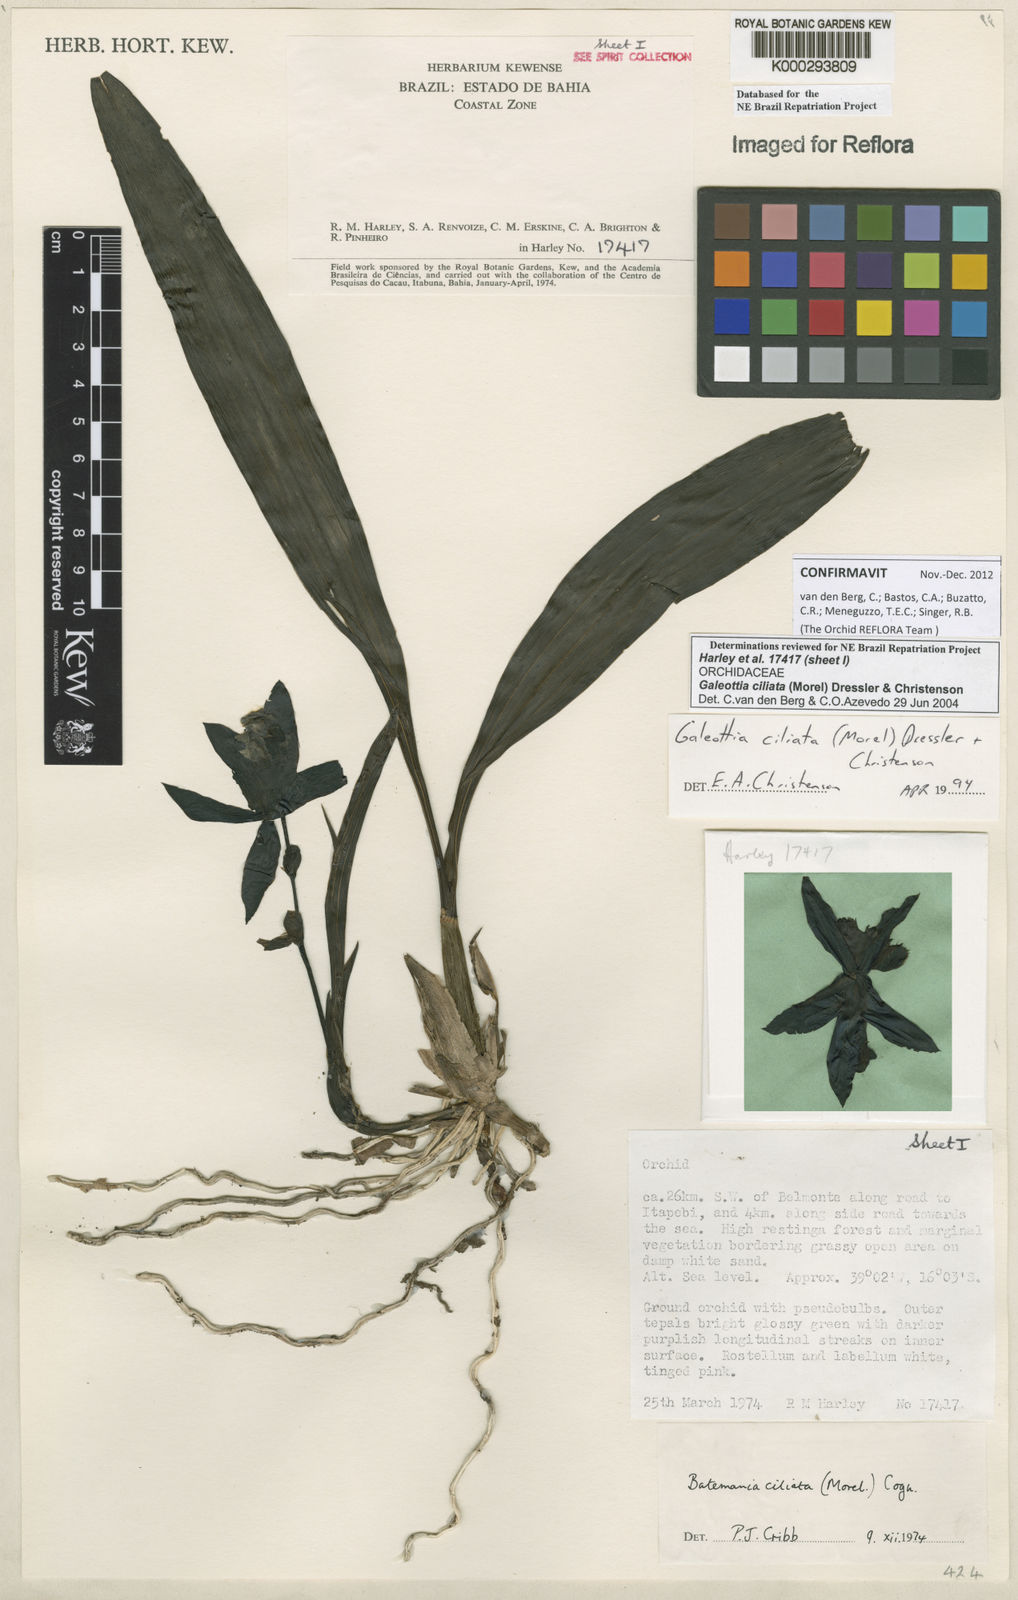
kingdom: Plantae
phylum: Tracheophyta
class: Liliopsida
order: Asparagales
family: Orchidaceae
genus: Galeottia
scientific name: Galeottia ciliata
